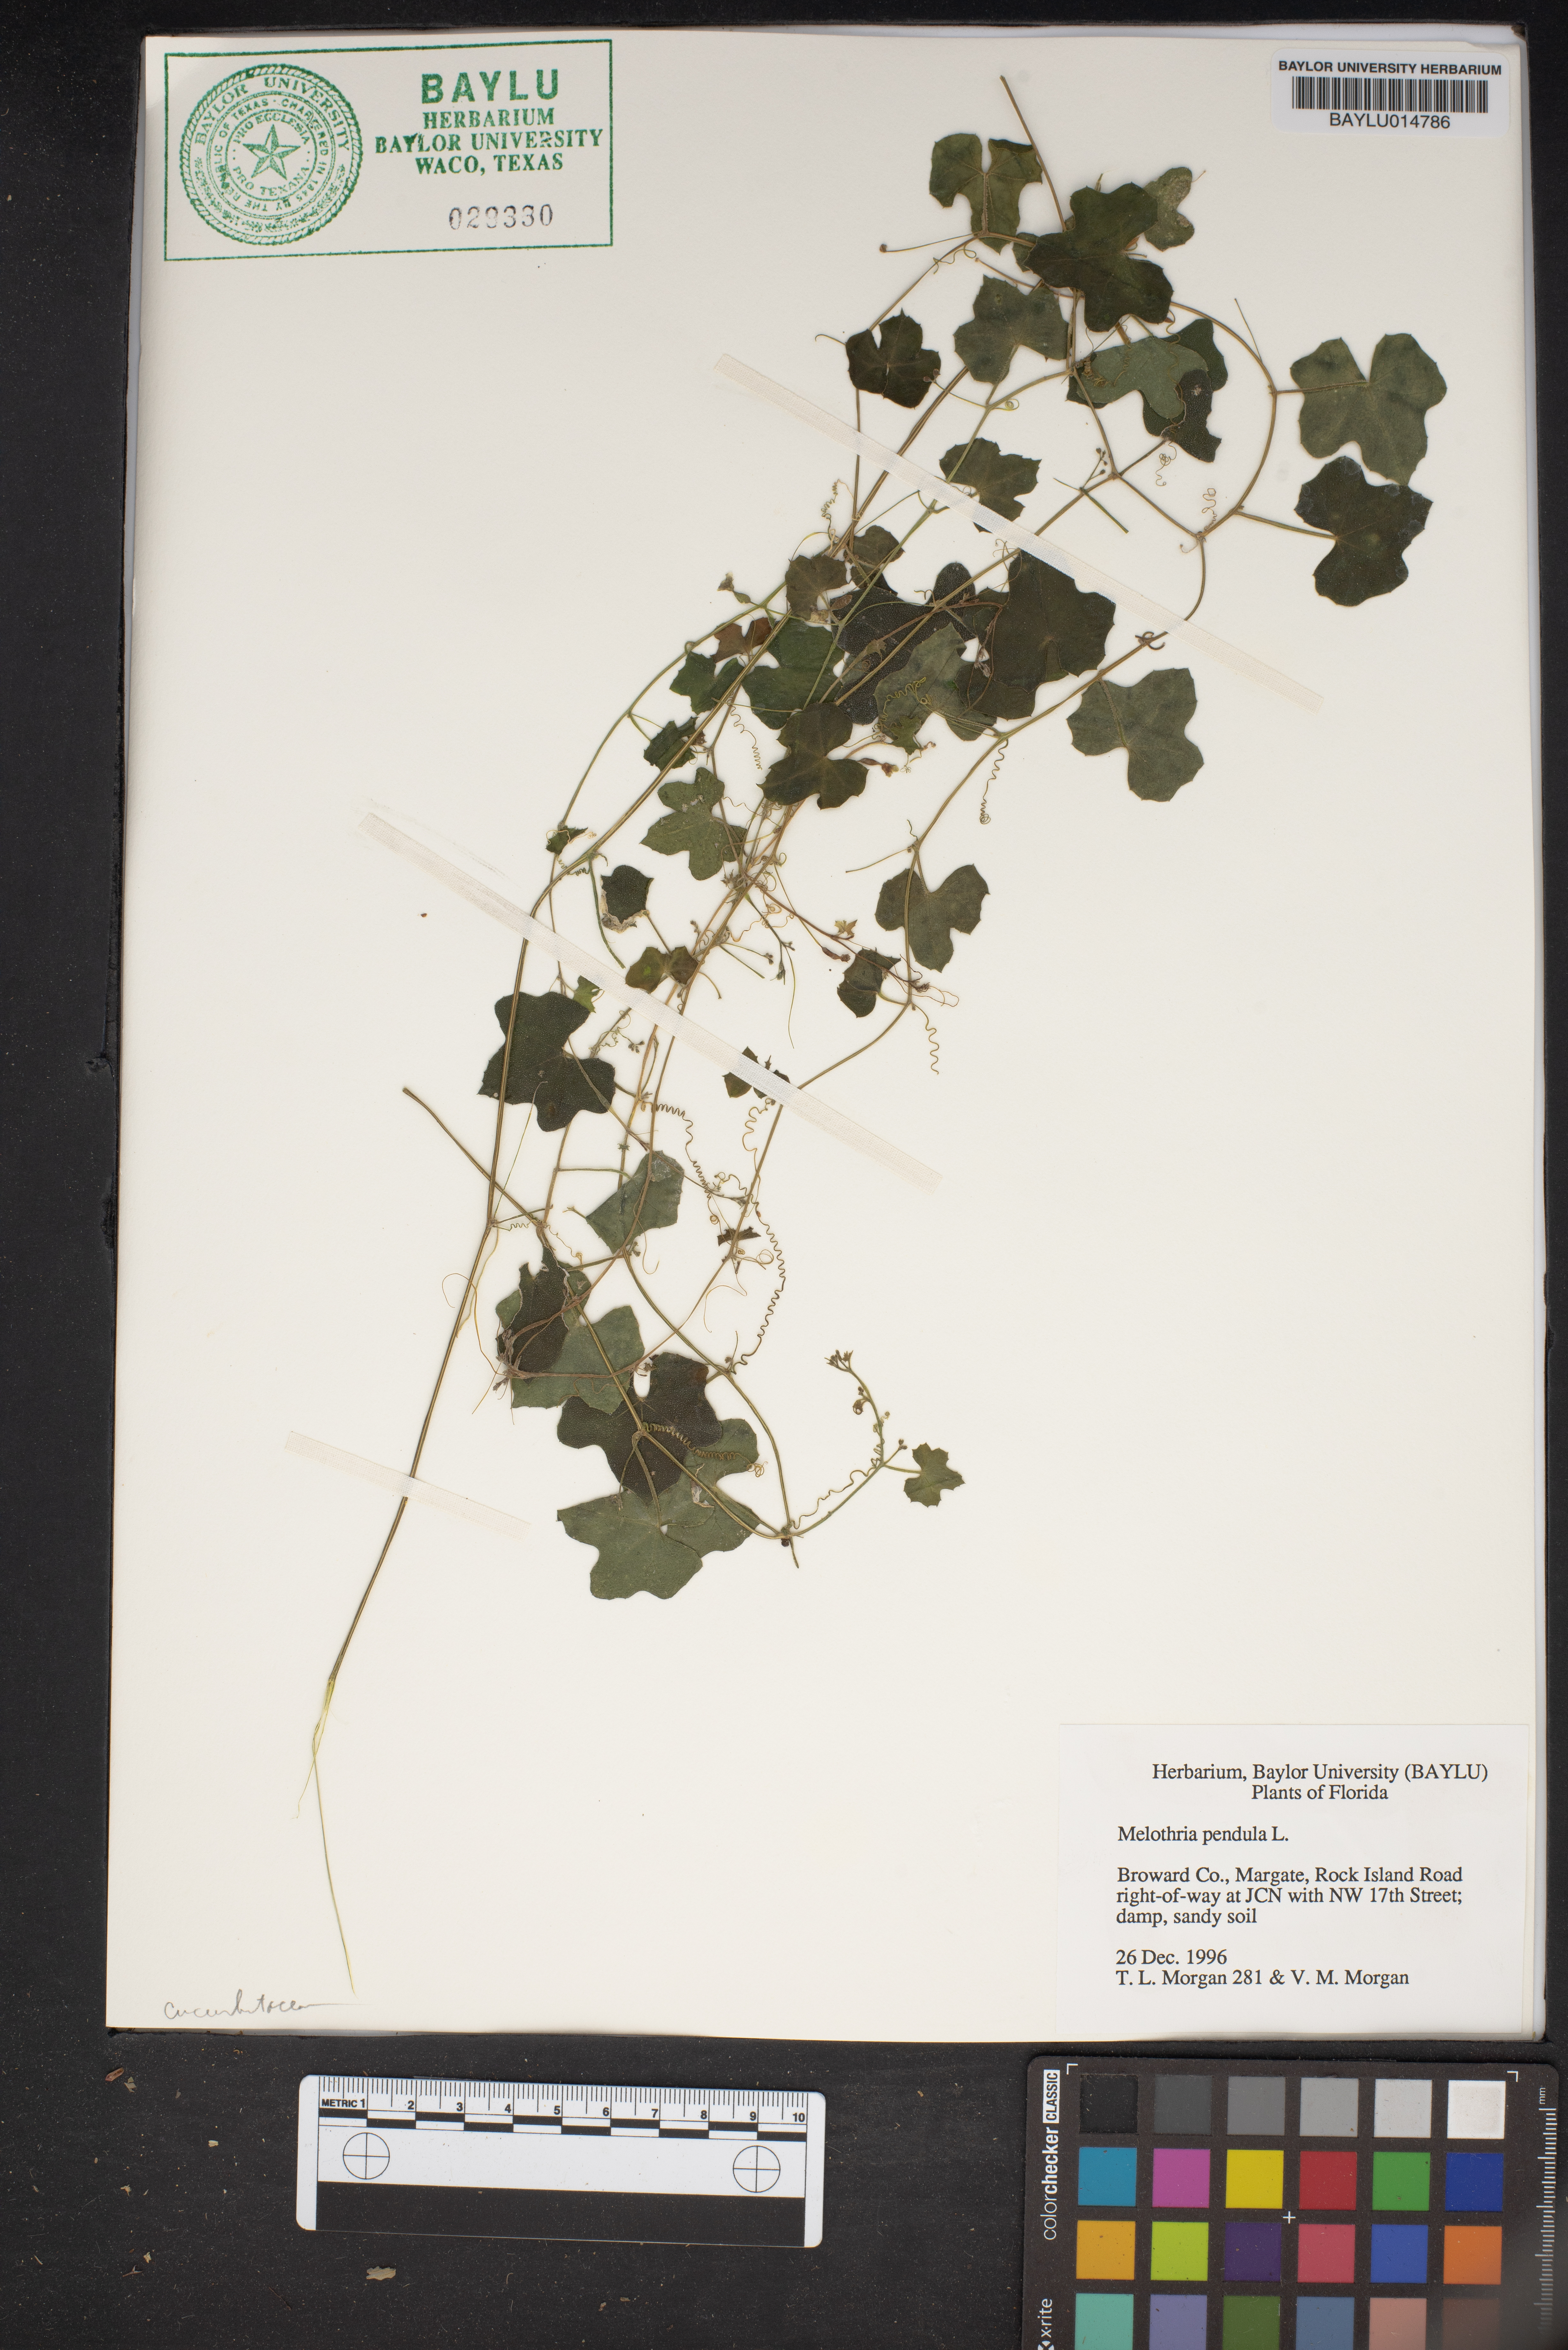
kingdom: Plantae
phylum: Tracheophyta
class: Magnoliopsida
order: Cucurbitales
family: Cucurbitaceae
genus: Melothria
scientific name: Melothria pendula
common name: Creeping-cucumber
